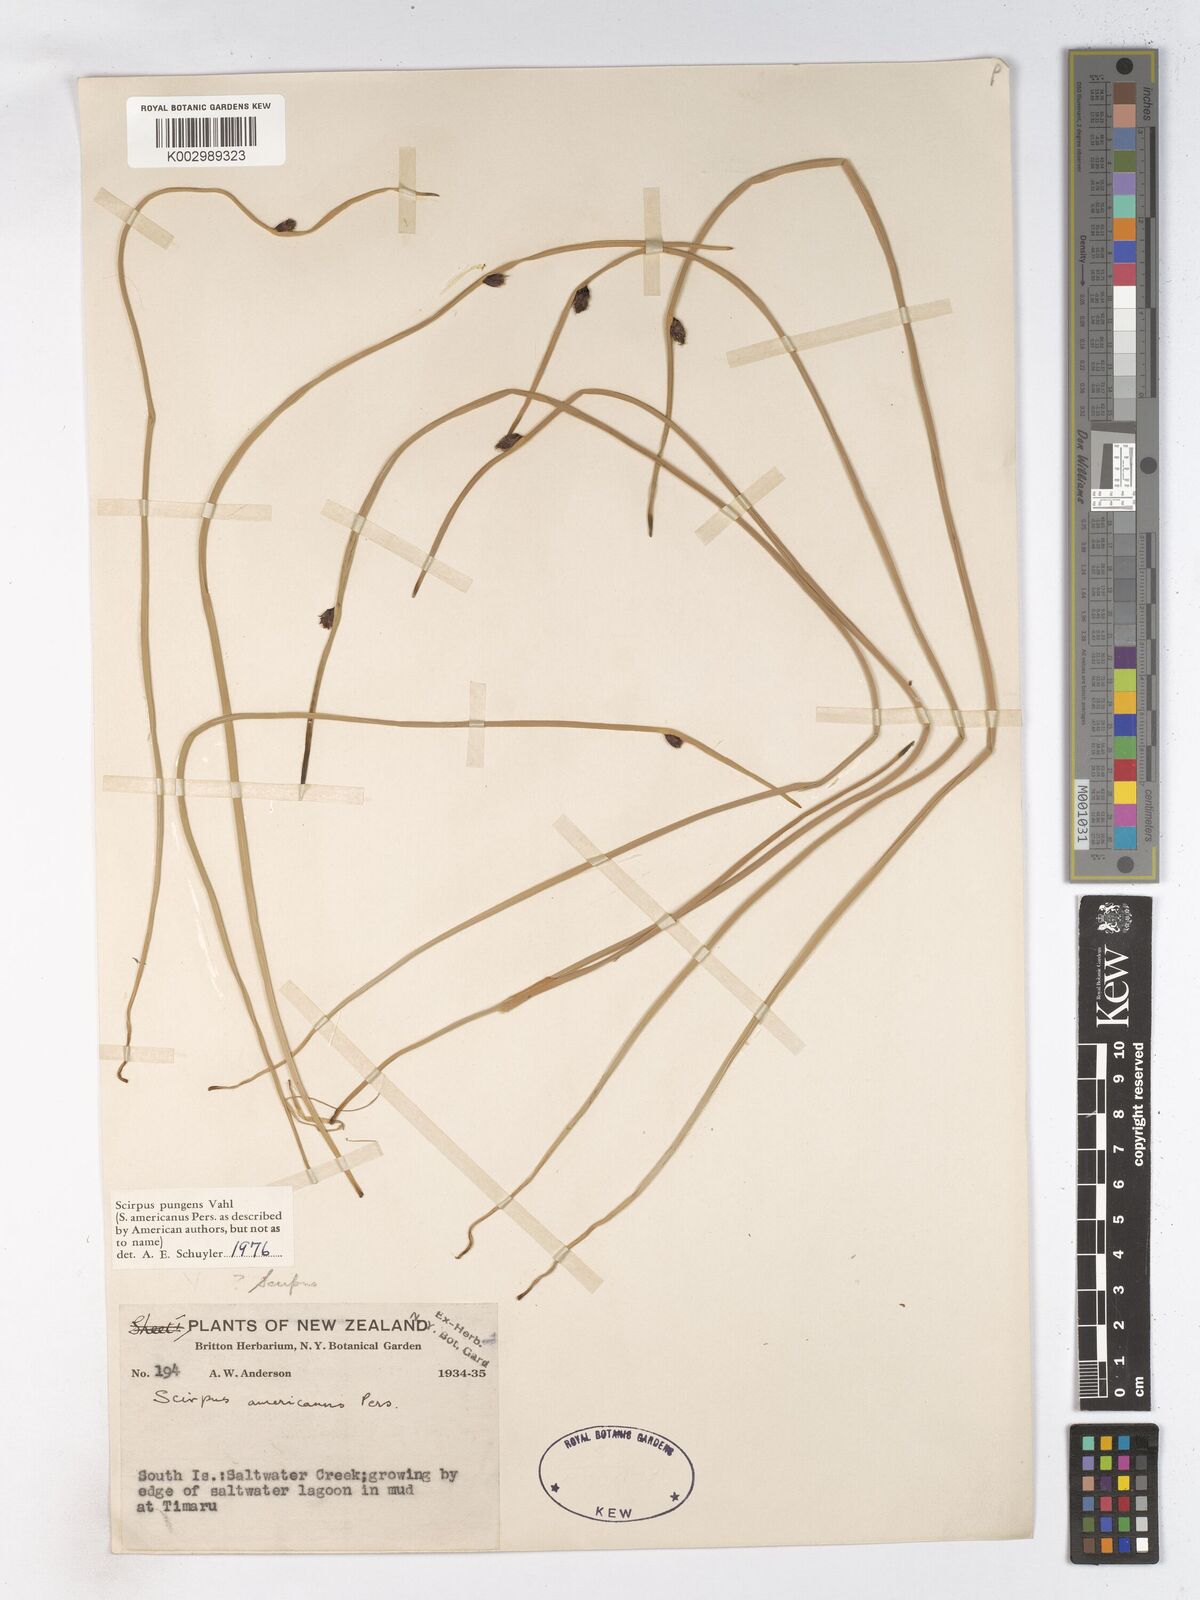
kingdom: Plantae
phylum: Tracheophyta
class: Liliopsida
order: Poales
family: Cyperaceae
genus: Schoenoplectus
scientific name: Schoenoplectus pungens
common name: Sharp club-rush
